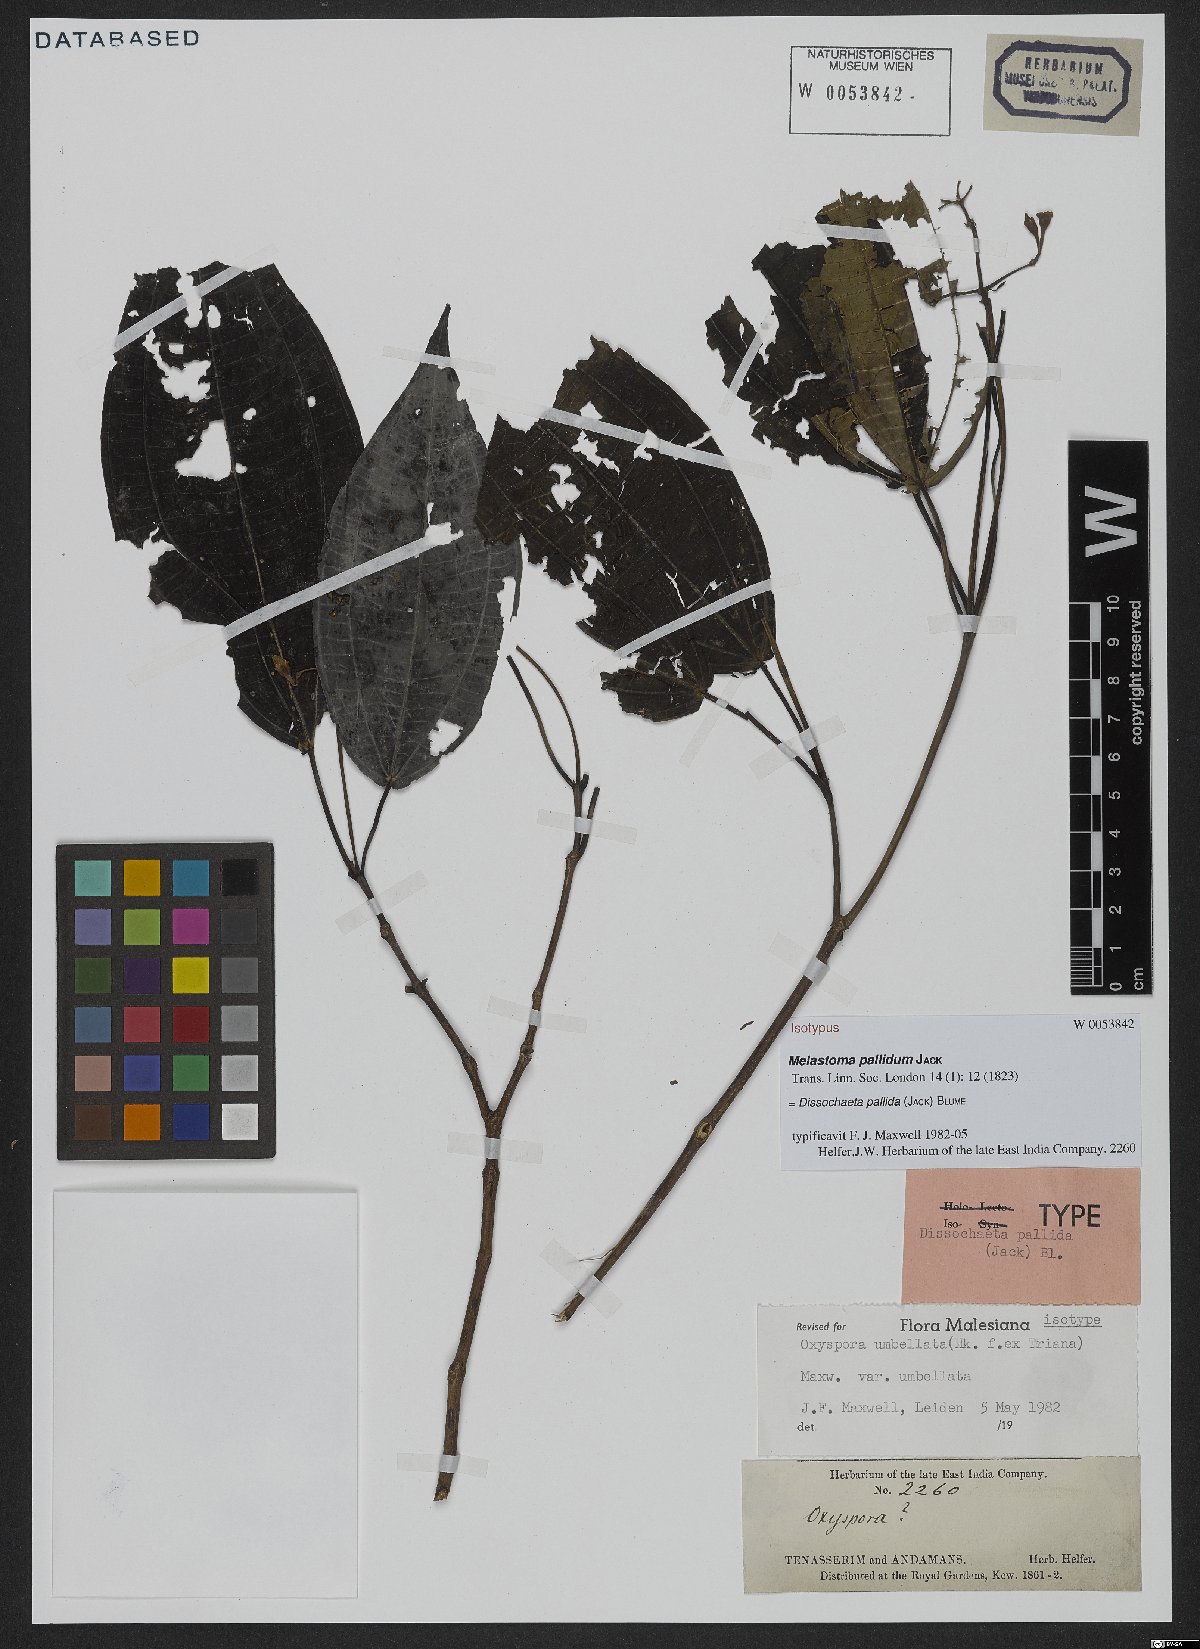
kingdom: Plantae
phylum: Tracheophyta
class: Magnoliopsida
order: Myrtales
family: Melastomataceae
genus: Dissochaeta
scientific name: Dissochaeta pallida
